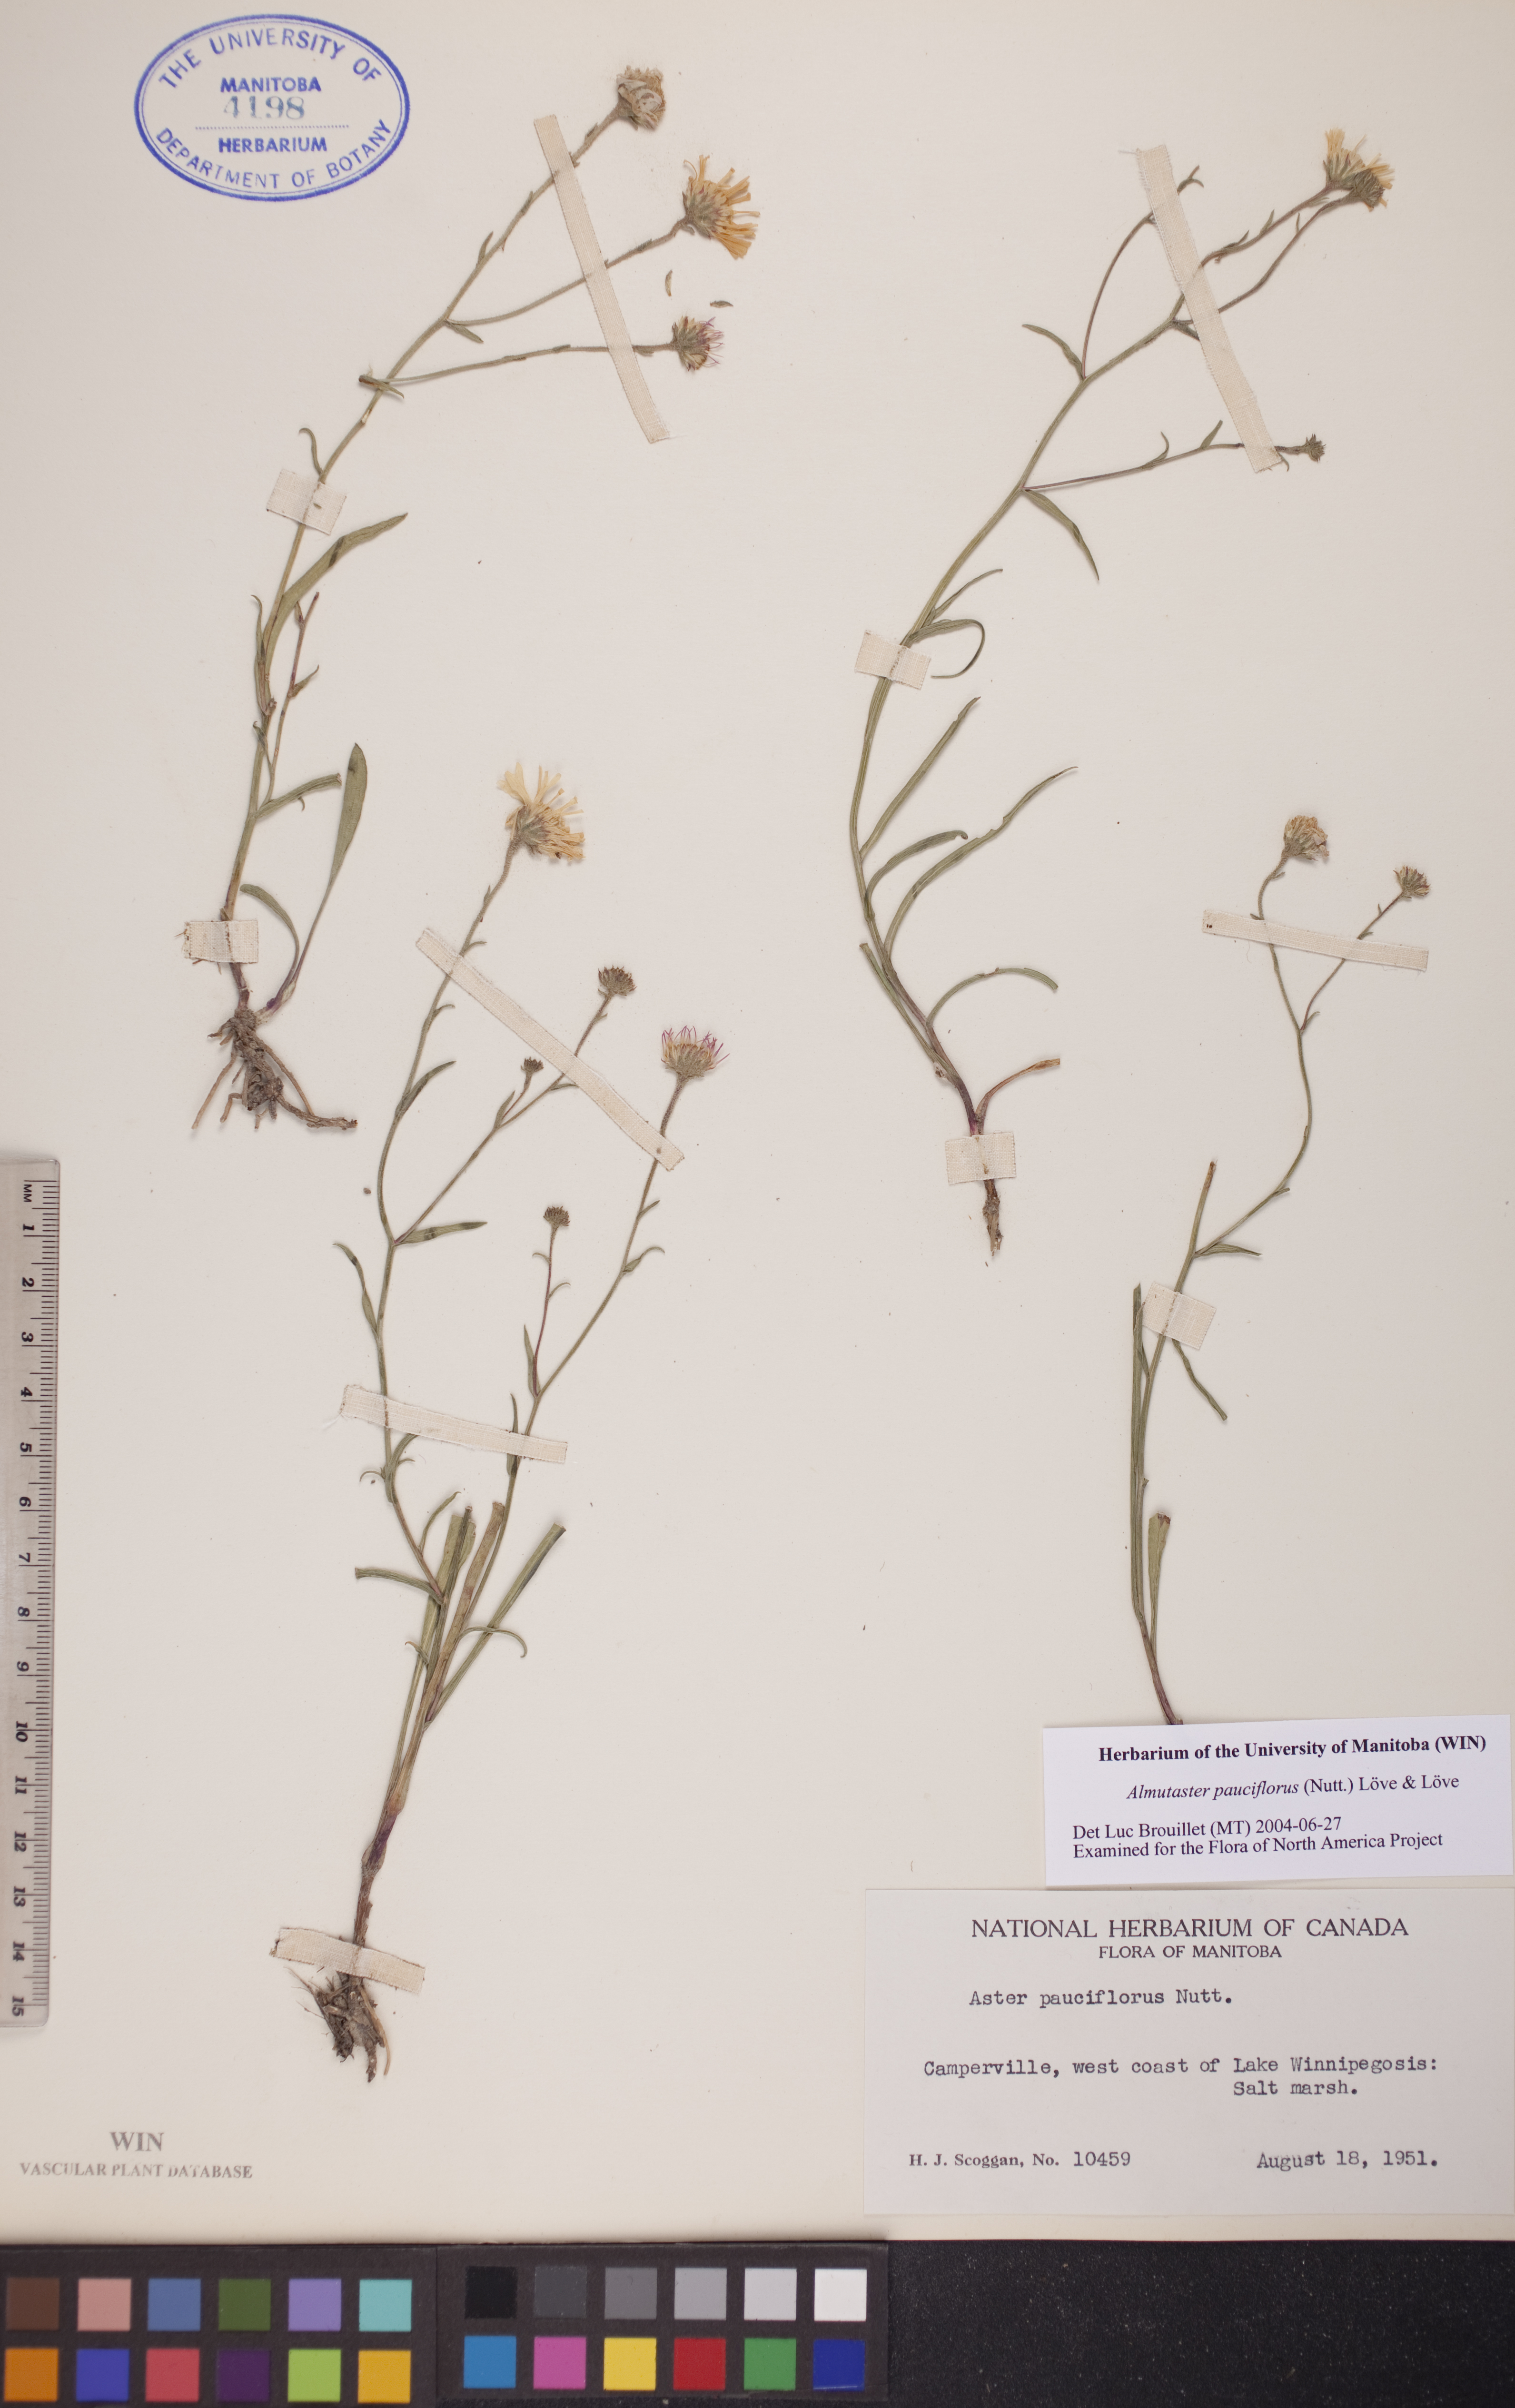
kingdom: Plantae
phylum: Tracheophyta
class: Magnoliopsida
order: Asterales
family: Asteraceae
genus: Almutaster
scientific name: Almutaster pauciflorus
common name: Alkaline aster
